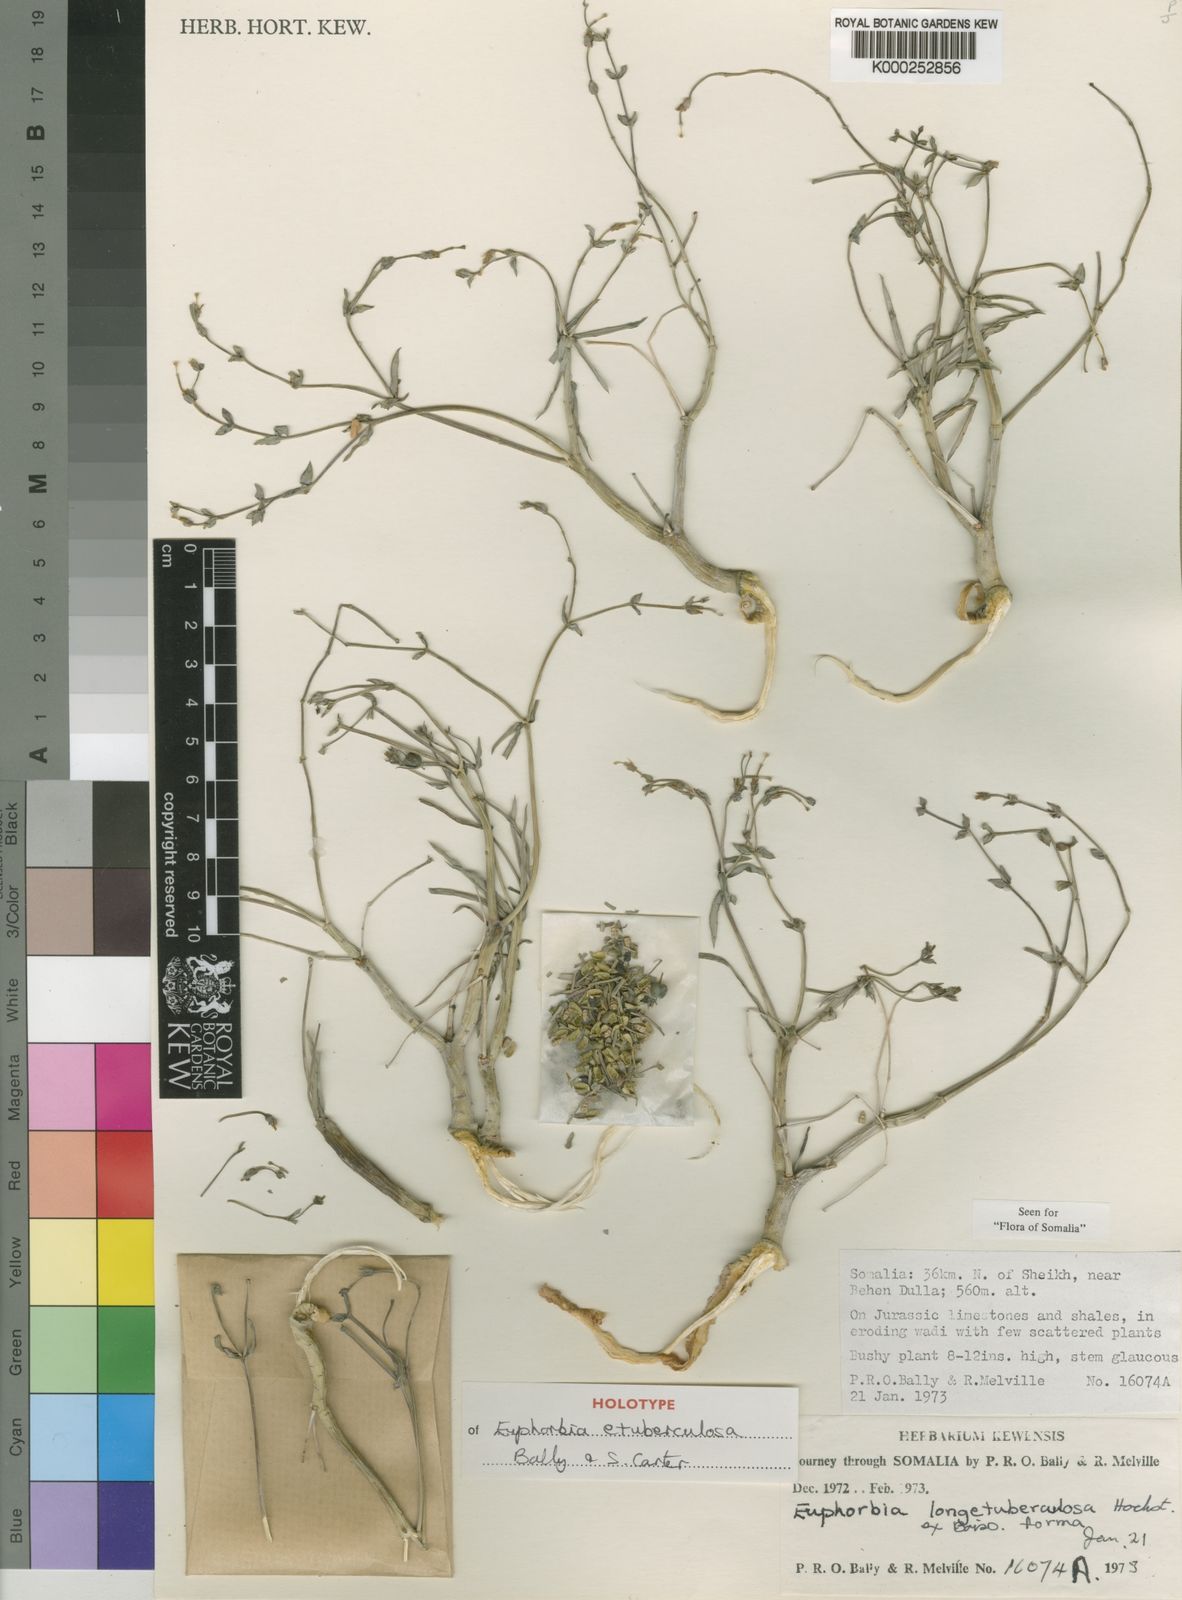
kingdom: Plantae
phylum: Tracheophyta
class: Magnoliopsida
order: Malpighiales
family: Euphorbiaceae
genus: Euphorbia
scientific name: Euphorbia etuberculosa
